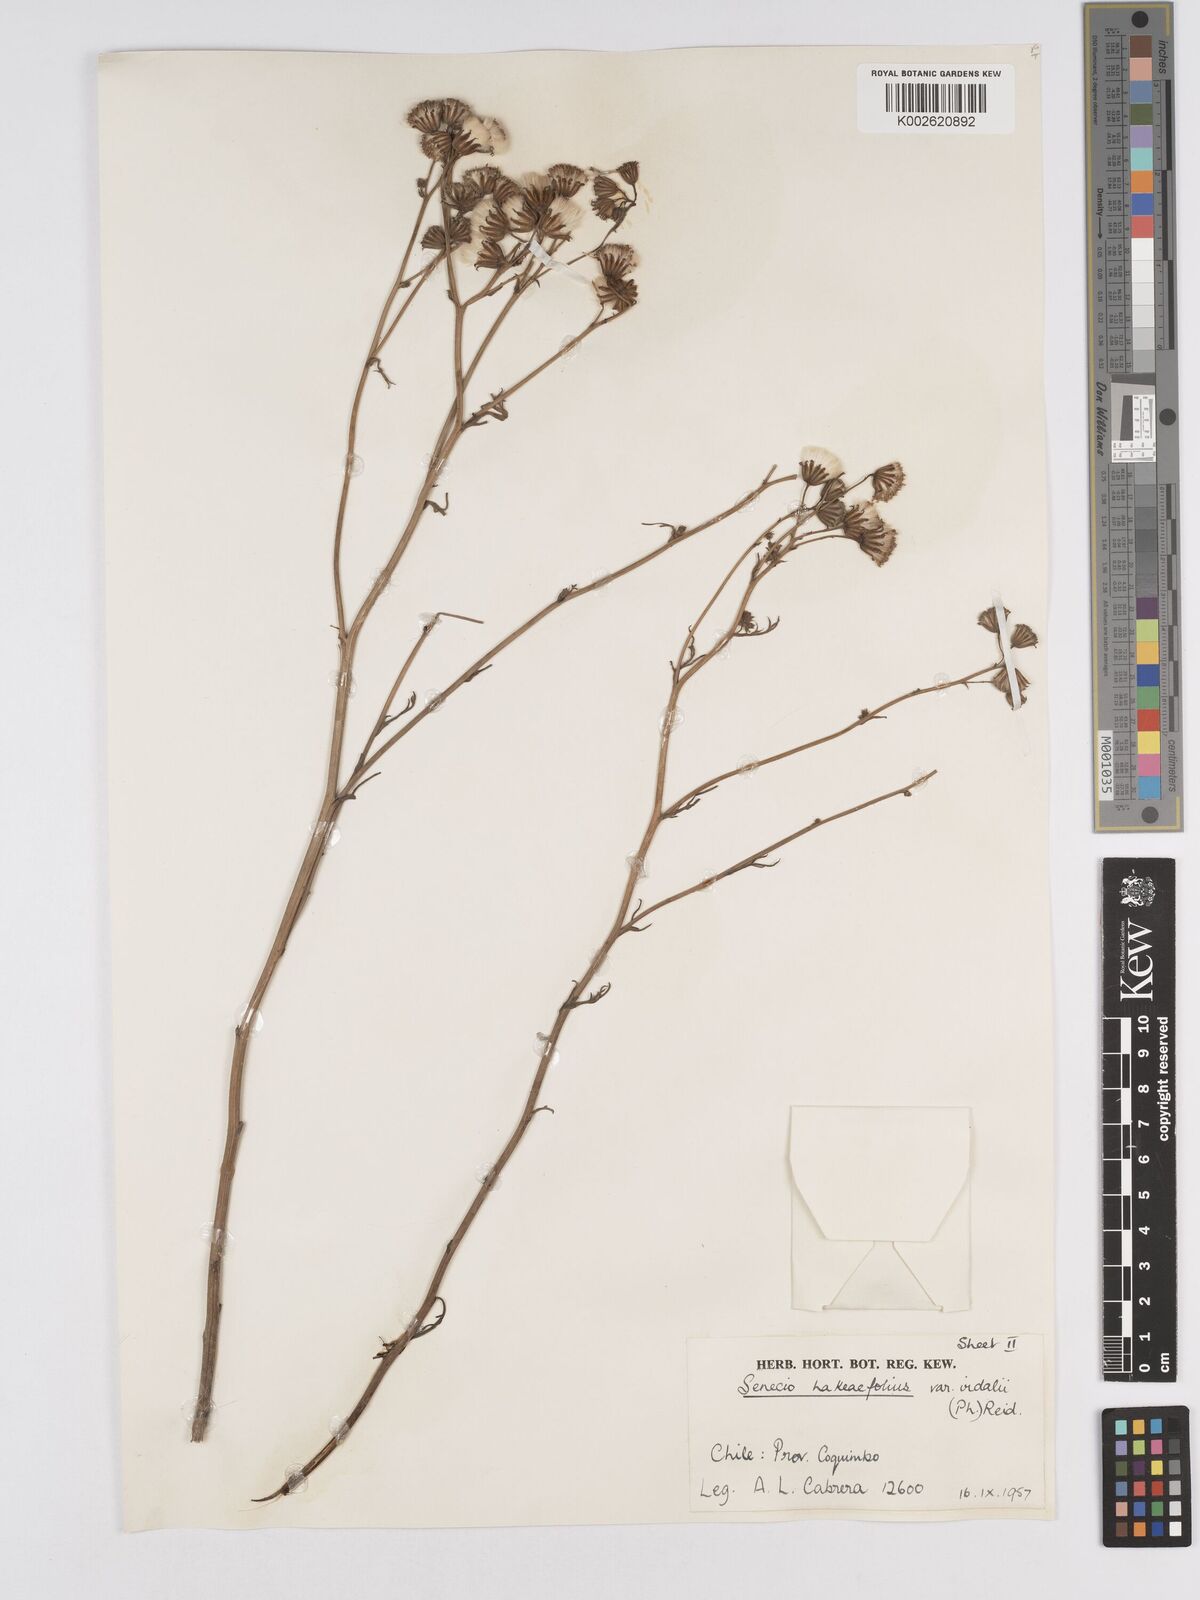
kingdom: Plantae
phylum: Tracheophyta
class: Magnoliopsida
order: Asterales
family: Asteraceae
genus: Senecio
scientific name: Senecio hakeifolius
